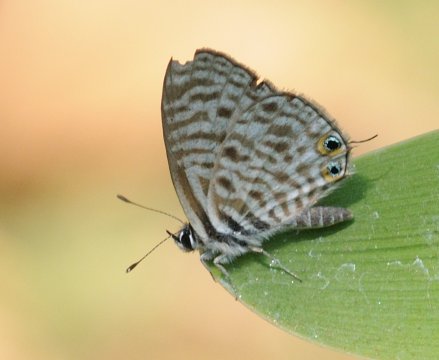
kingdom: Animalia
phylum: Arthropoda
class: Insecta
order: Lepidoptera
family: Nymphalidae
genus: Hamanumida
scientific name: Hamanumida daedalus
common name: Guineafowl
